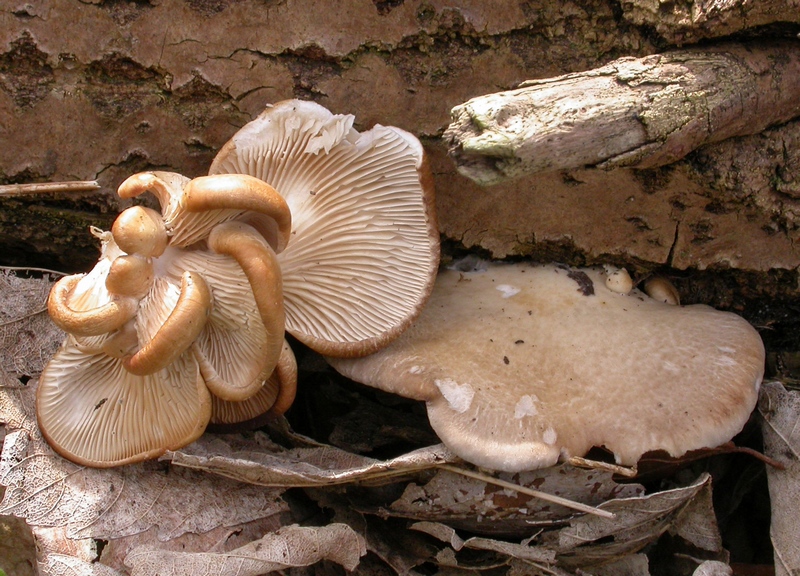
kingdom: Fungi
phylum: Basidiomycota
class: Agaricomycetes
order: Agaricales
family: Pleurotaceae
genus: Pleurotus
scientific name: Pleurotus ostreatus
